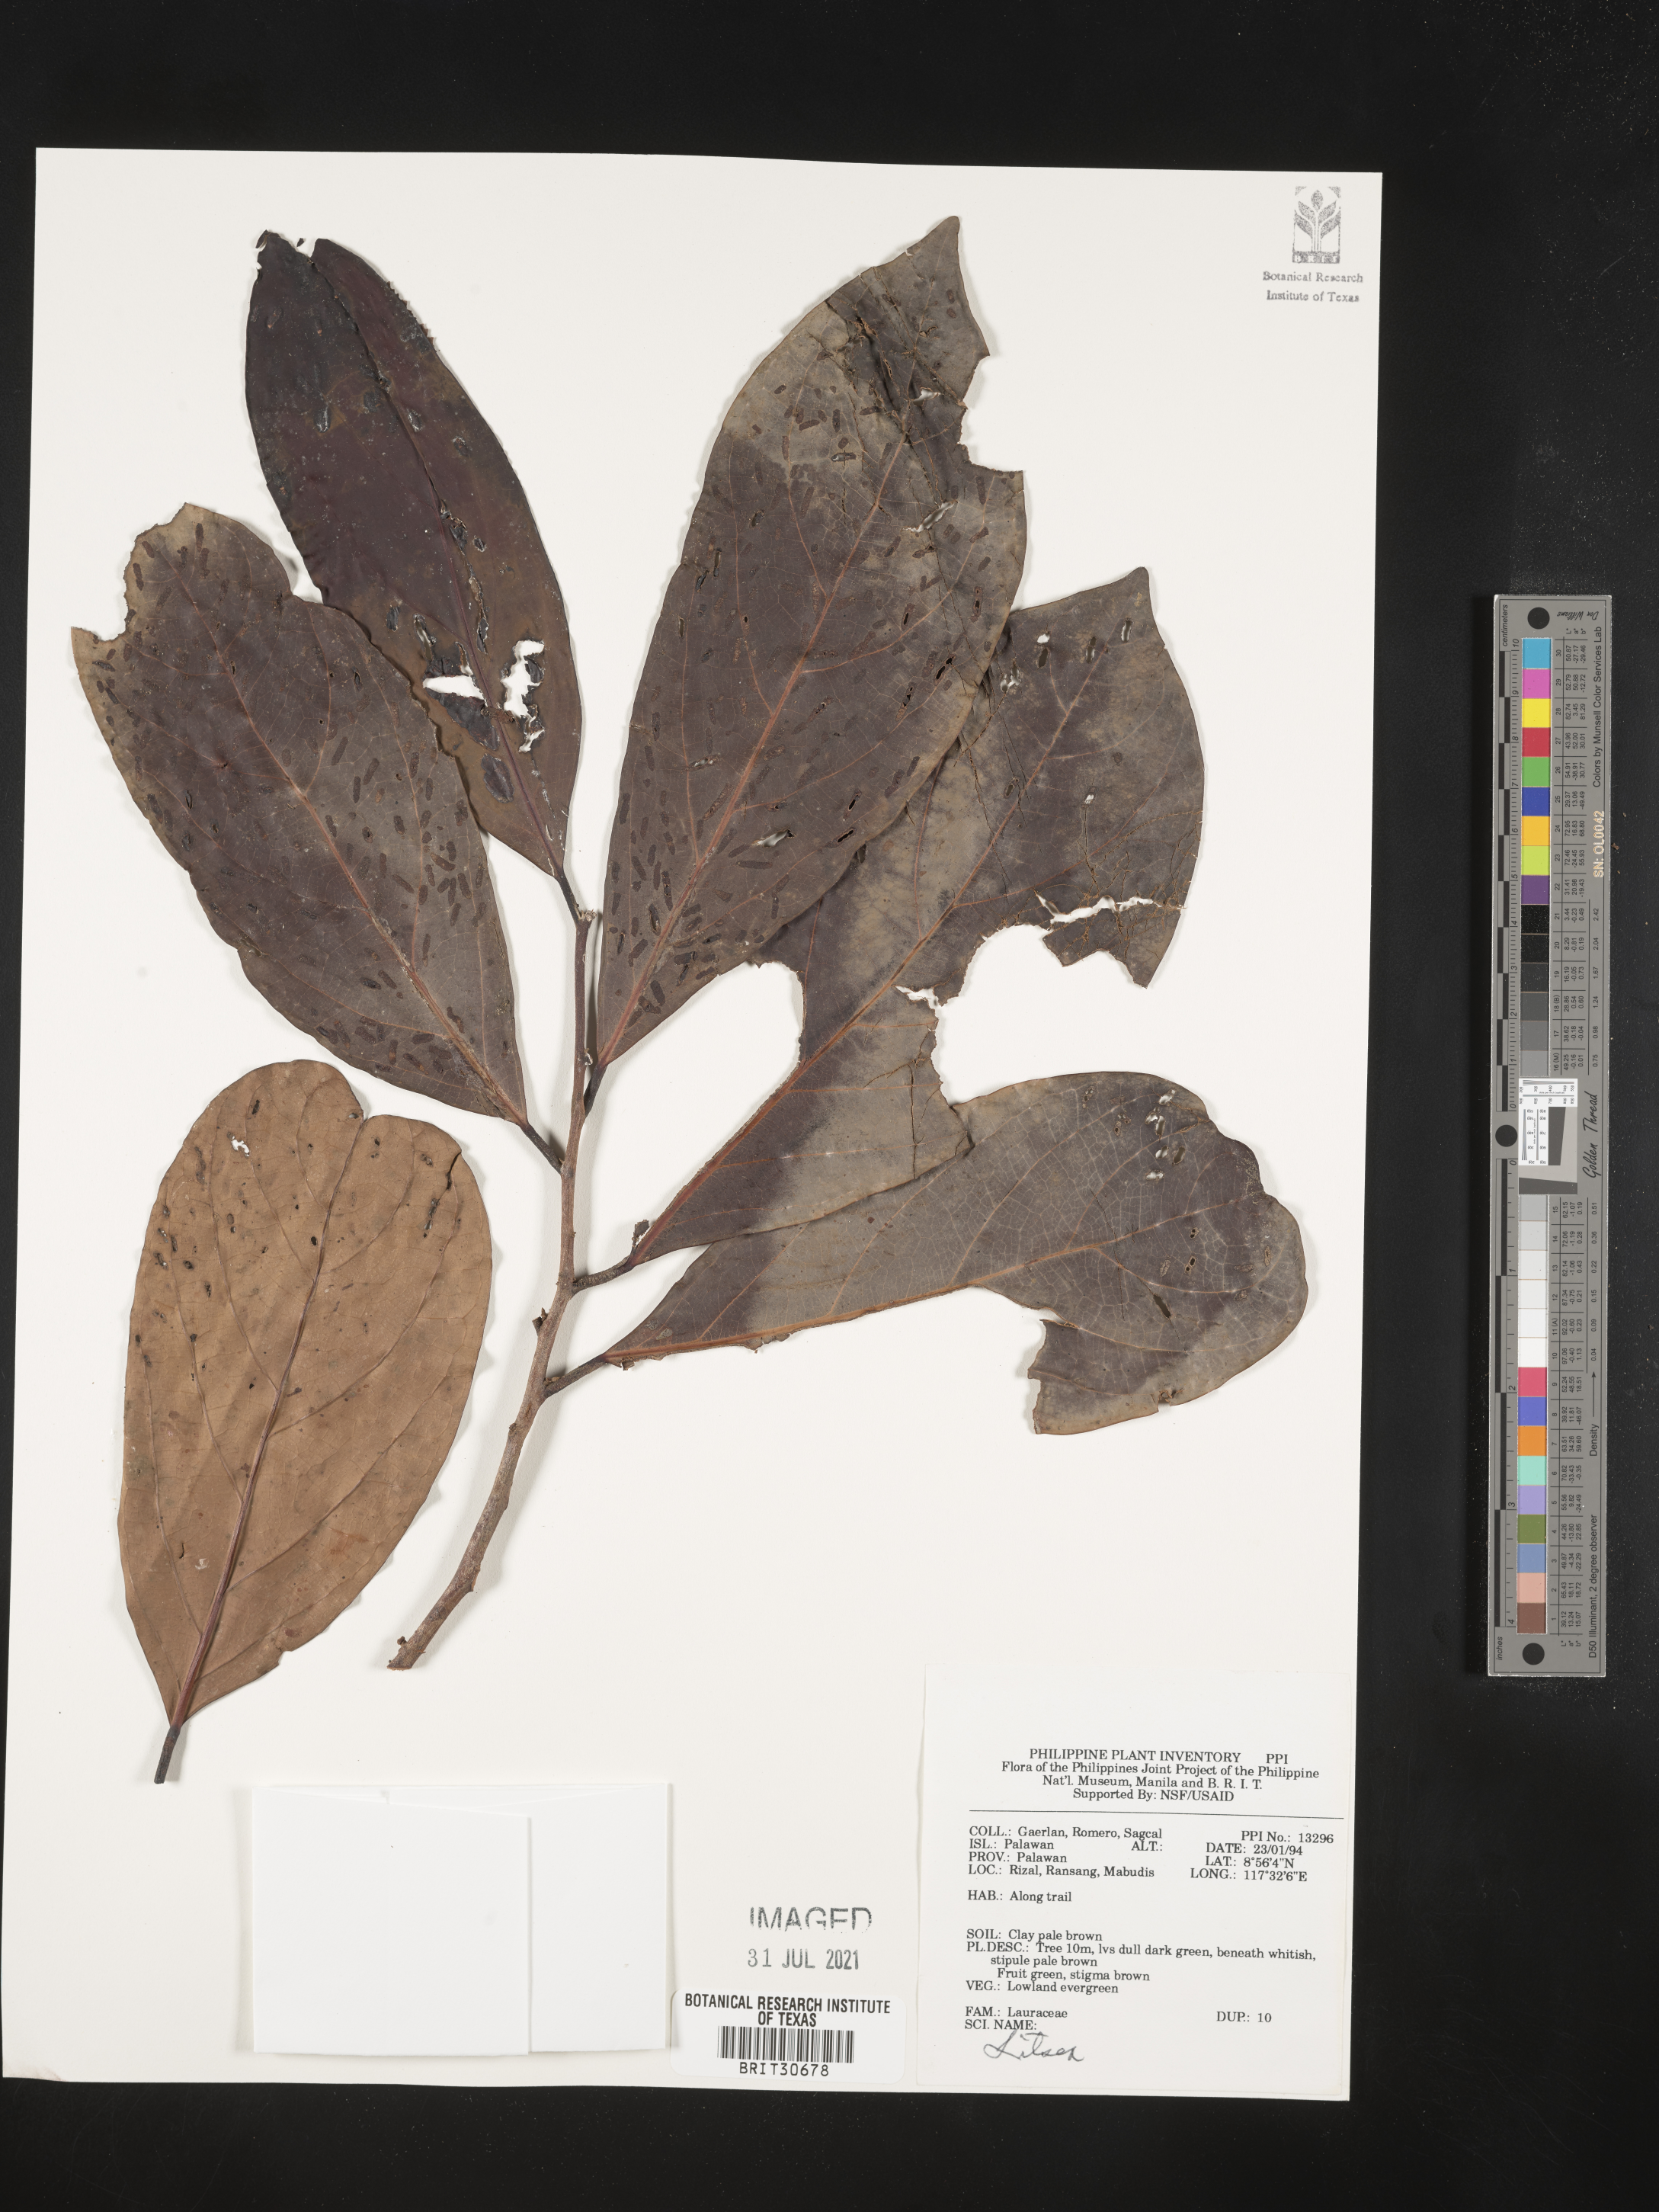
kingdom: Plantae
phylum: Tracheophyta
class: Magnoliopsida
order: Laurales
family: Lauraceae
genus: Litsea
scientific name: Litsea
